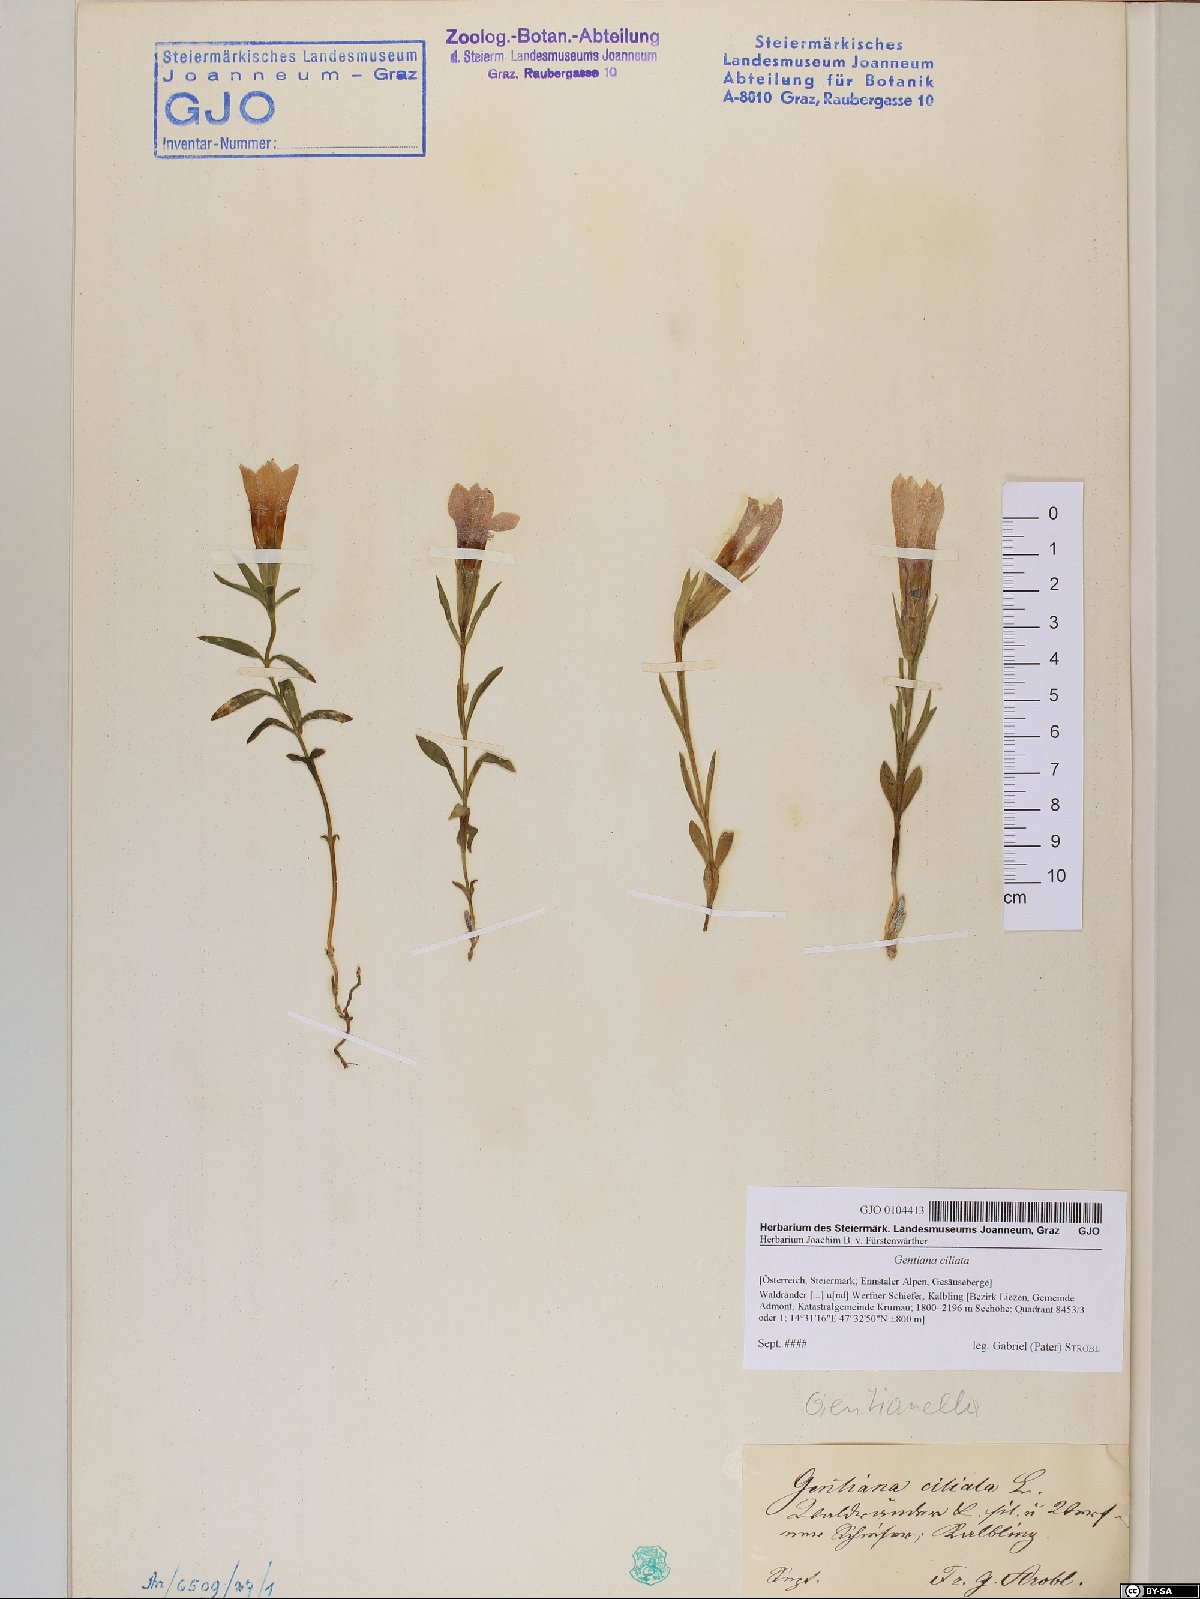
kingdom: Plantae
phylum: Tracheophyta
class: Magnoliopsida
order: Gentianales
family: Gentianaceae
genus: Gentianopsis
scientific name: Gentianopsis ciliata
